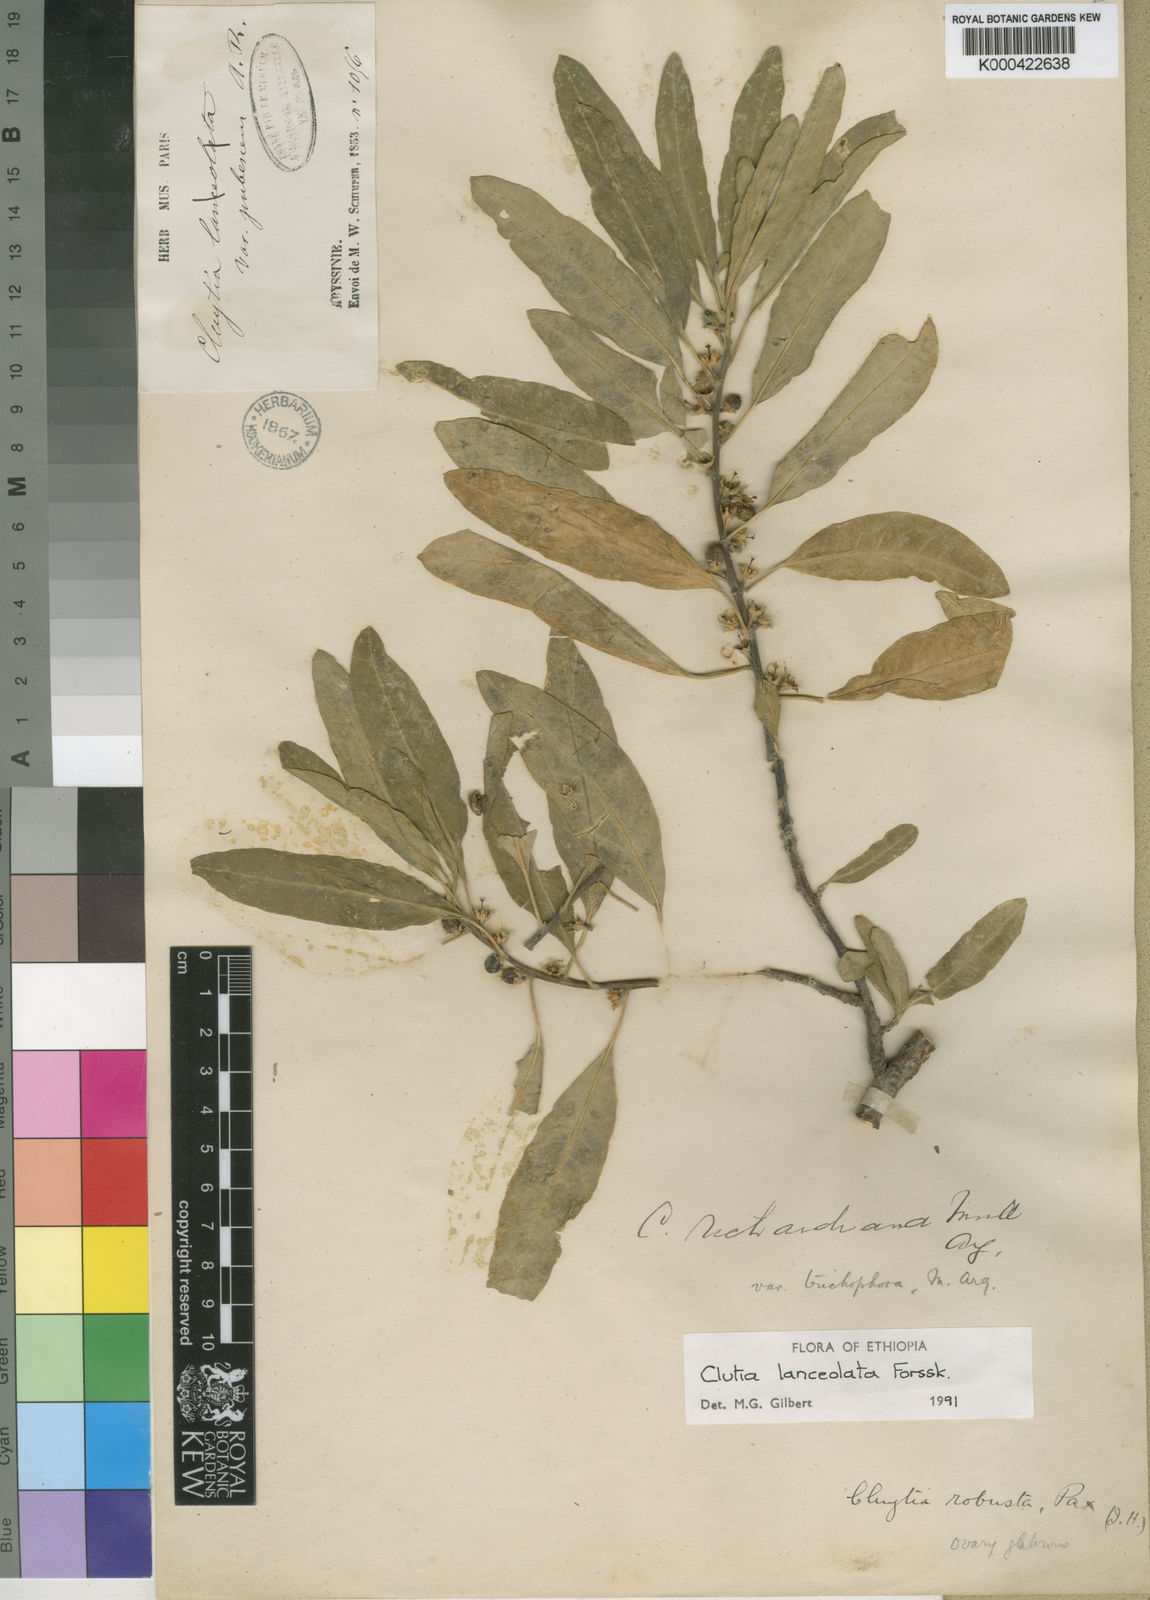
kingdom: Plantae
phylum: Tracheophyta
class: Magnoliopsida
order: Malpighiales
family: Peraceae
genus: Clutia
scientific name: Clutia lanceolata
